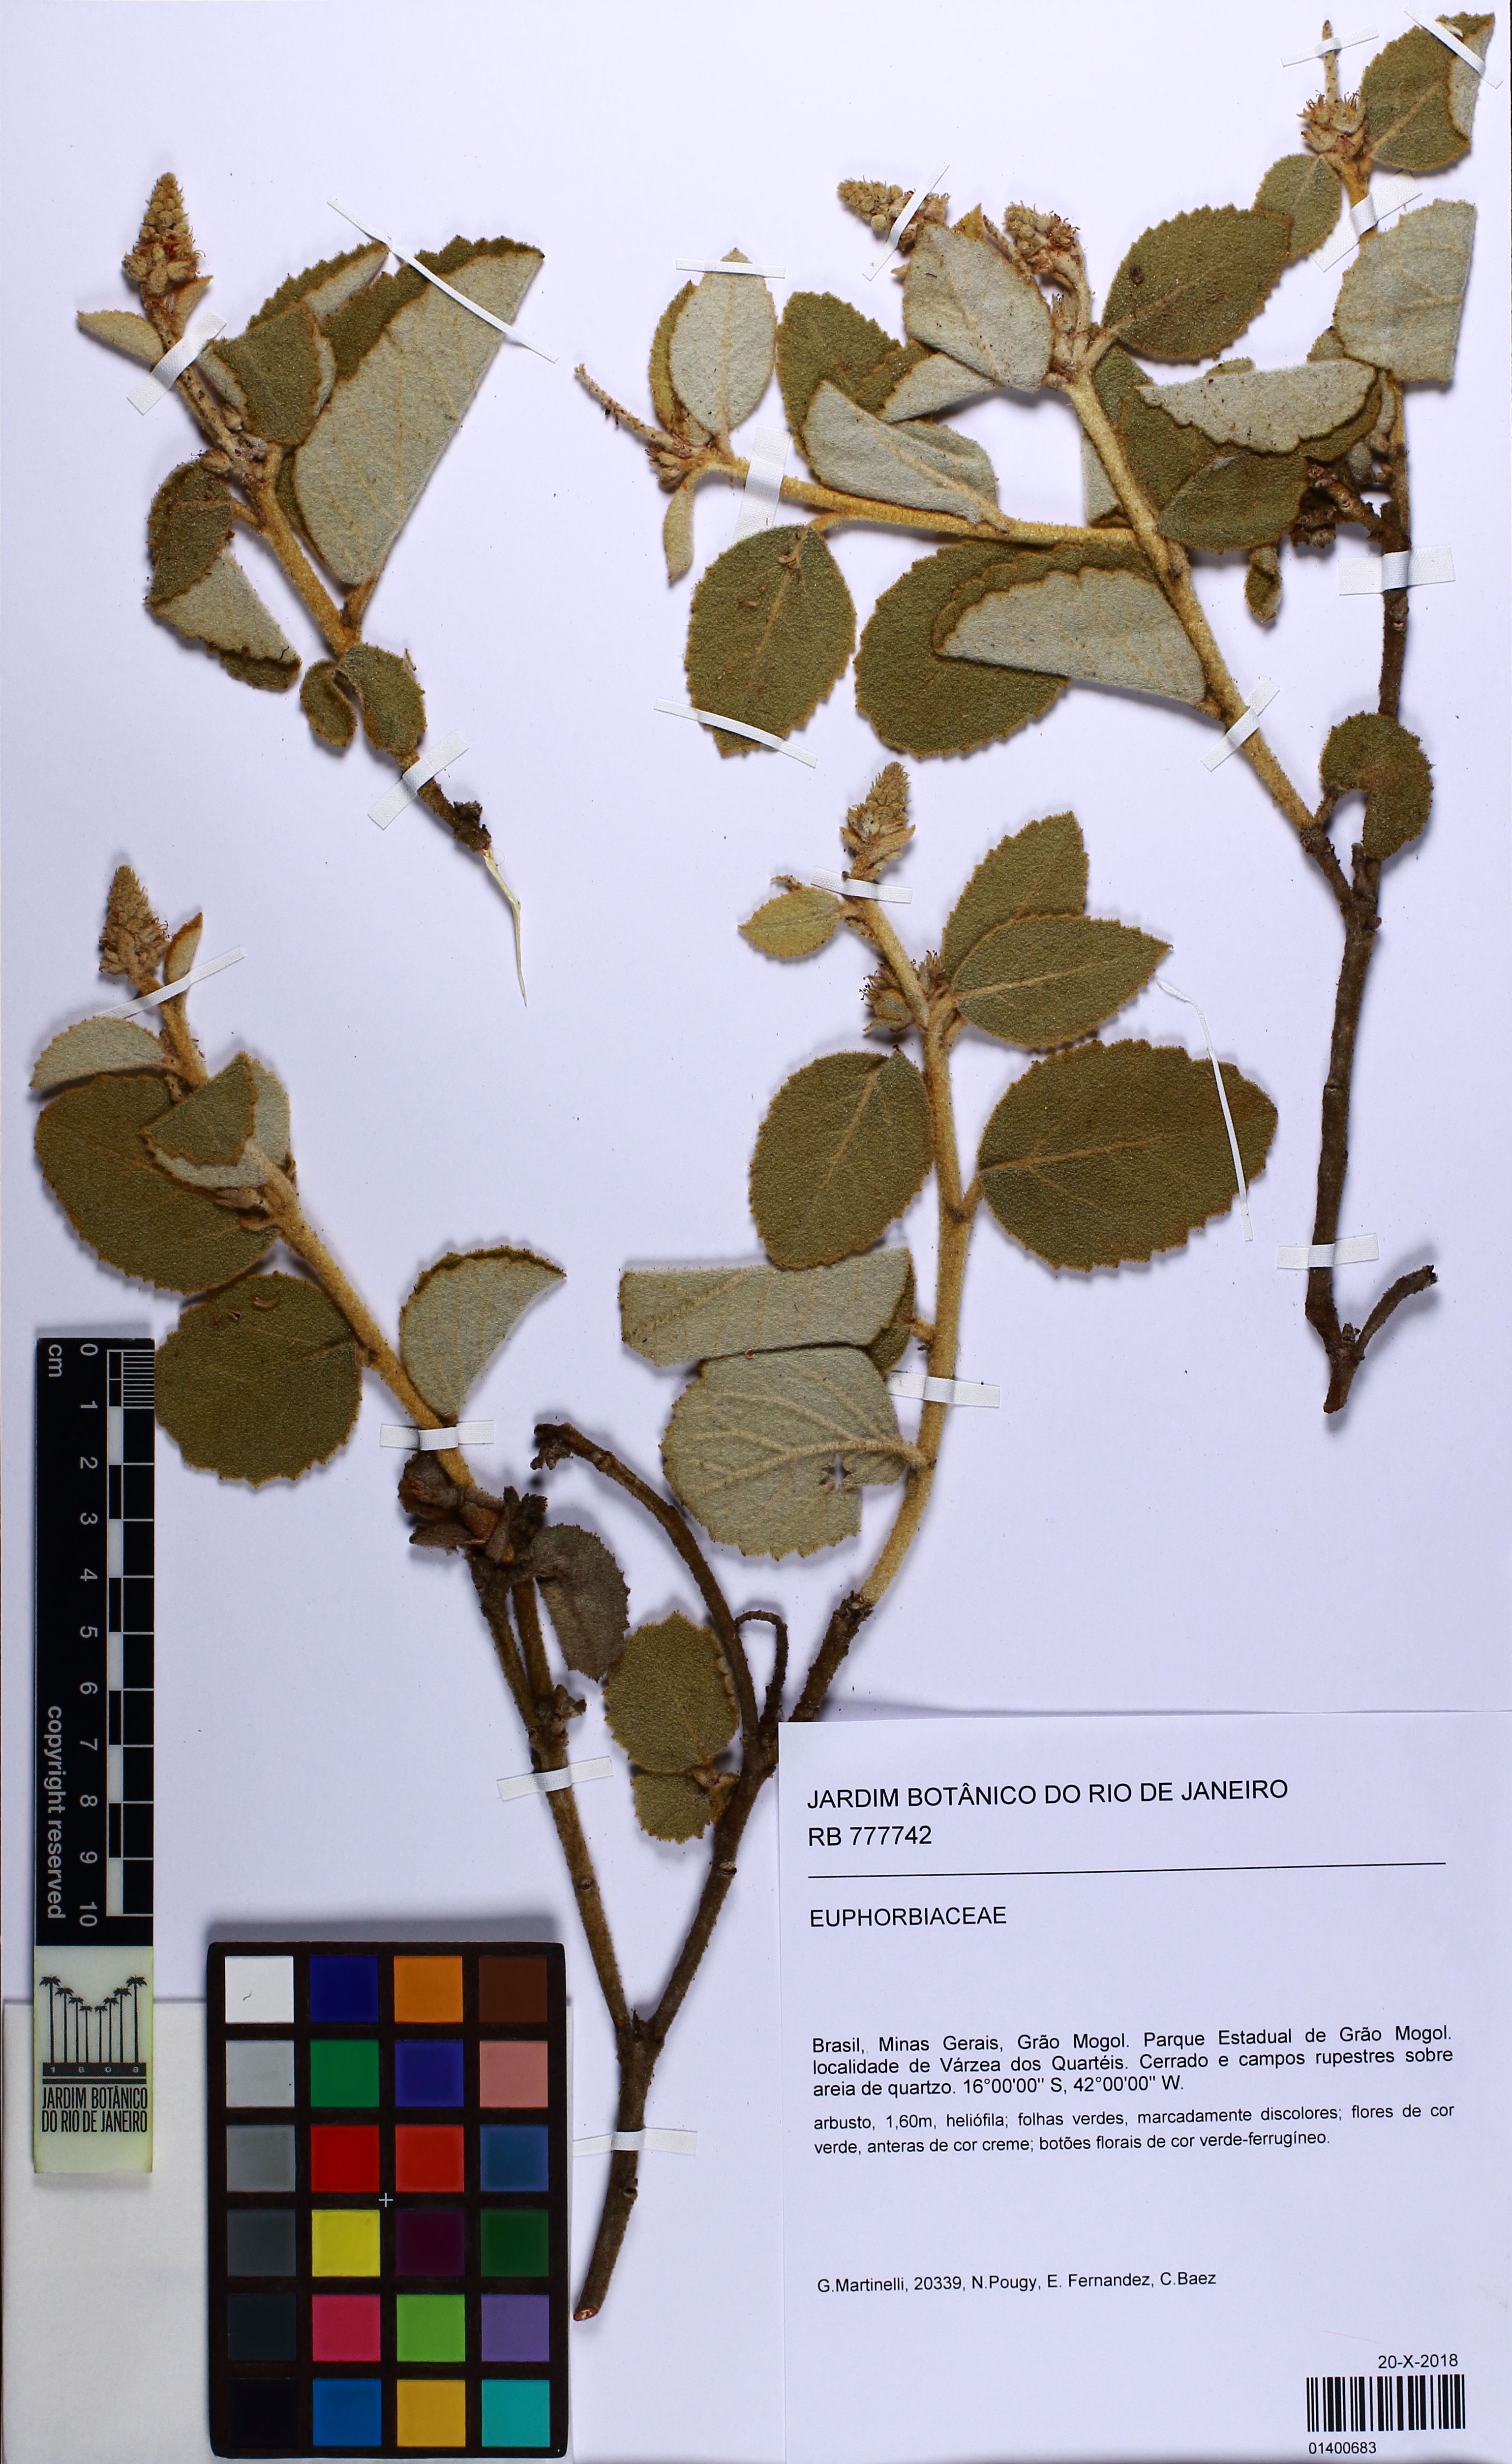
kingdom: Plantae
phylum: Tracheophyta
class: Magnoliopsida
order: Malpighiales
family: Euphorbiaceae
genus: Croton
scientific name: Croton
